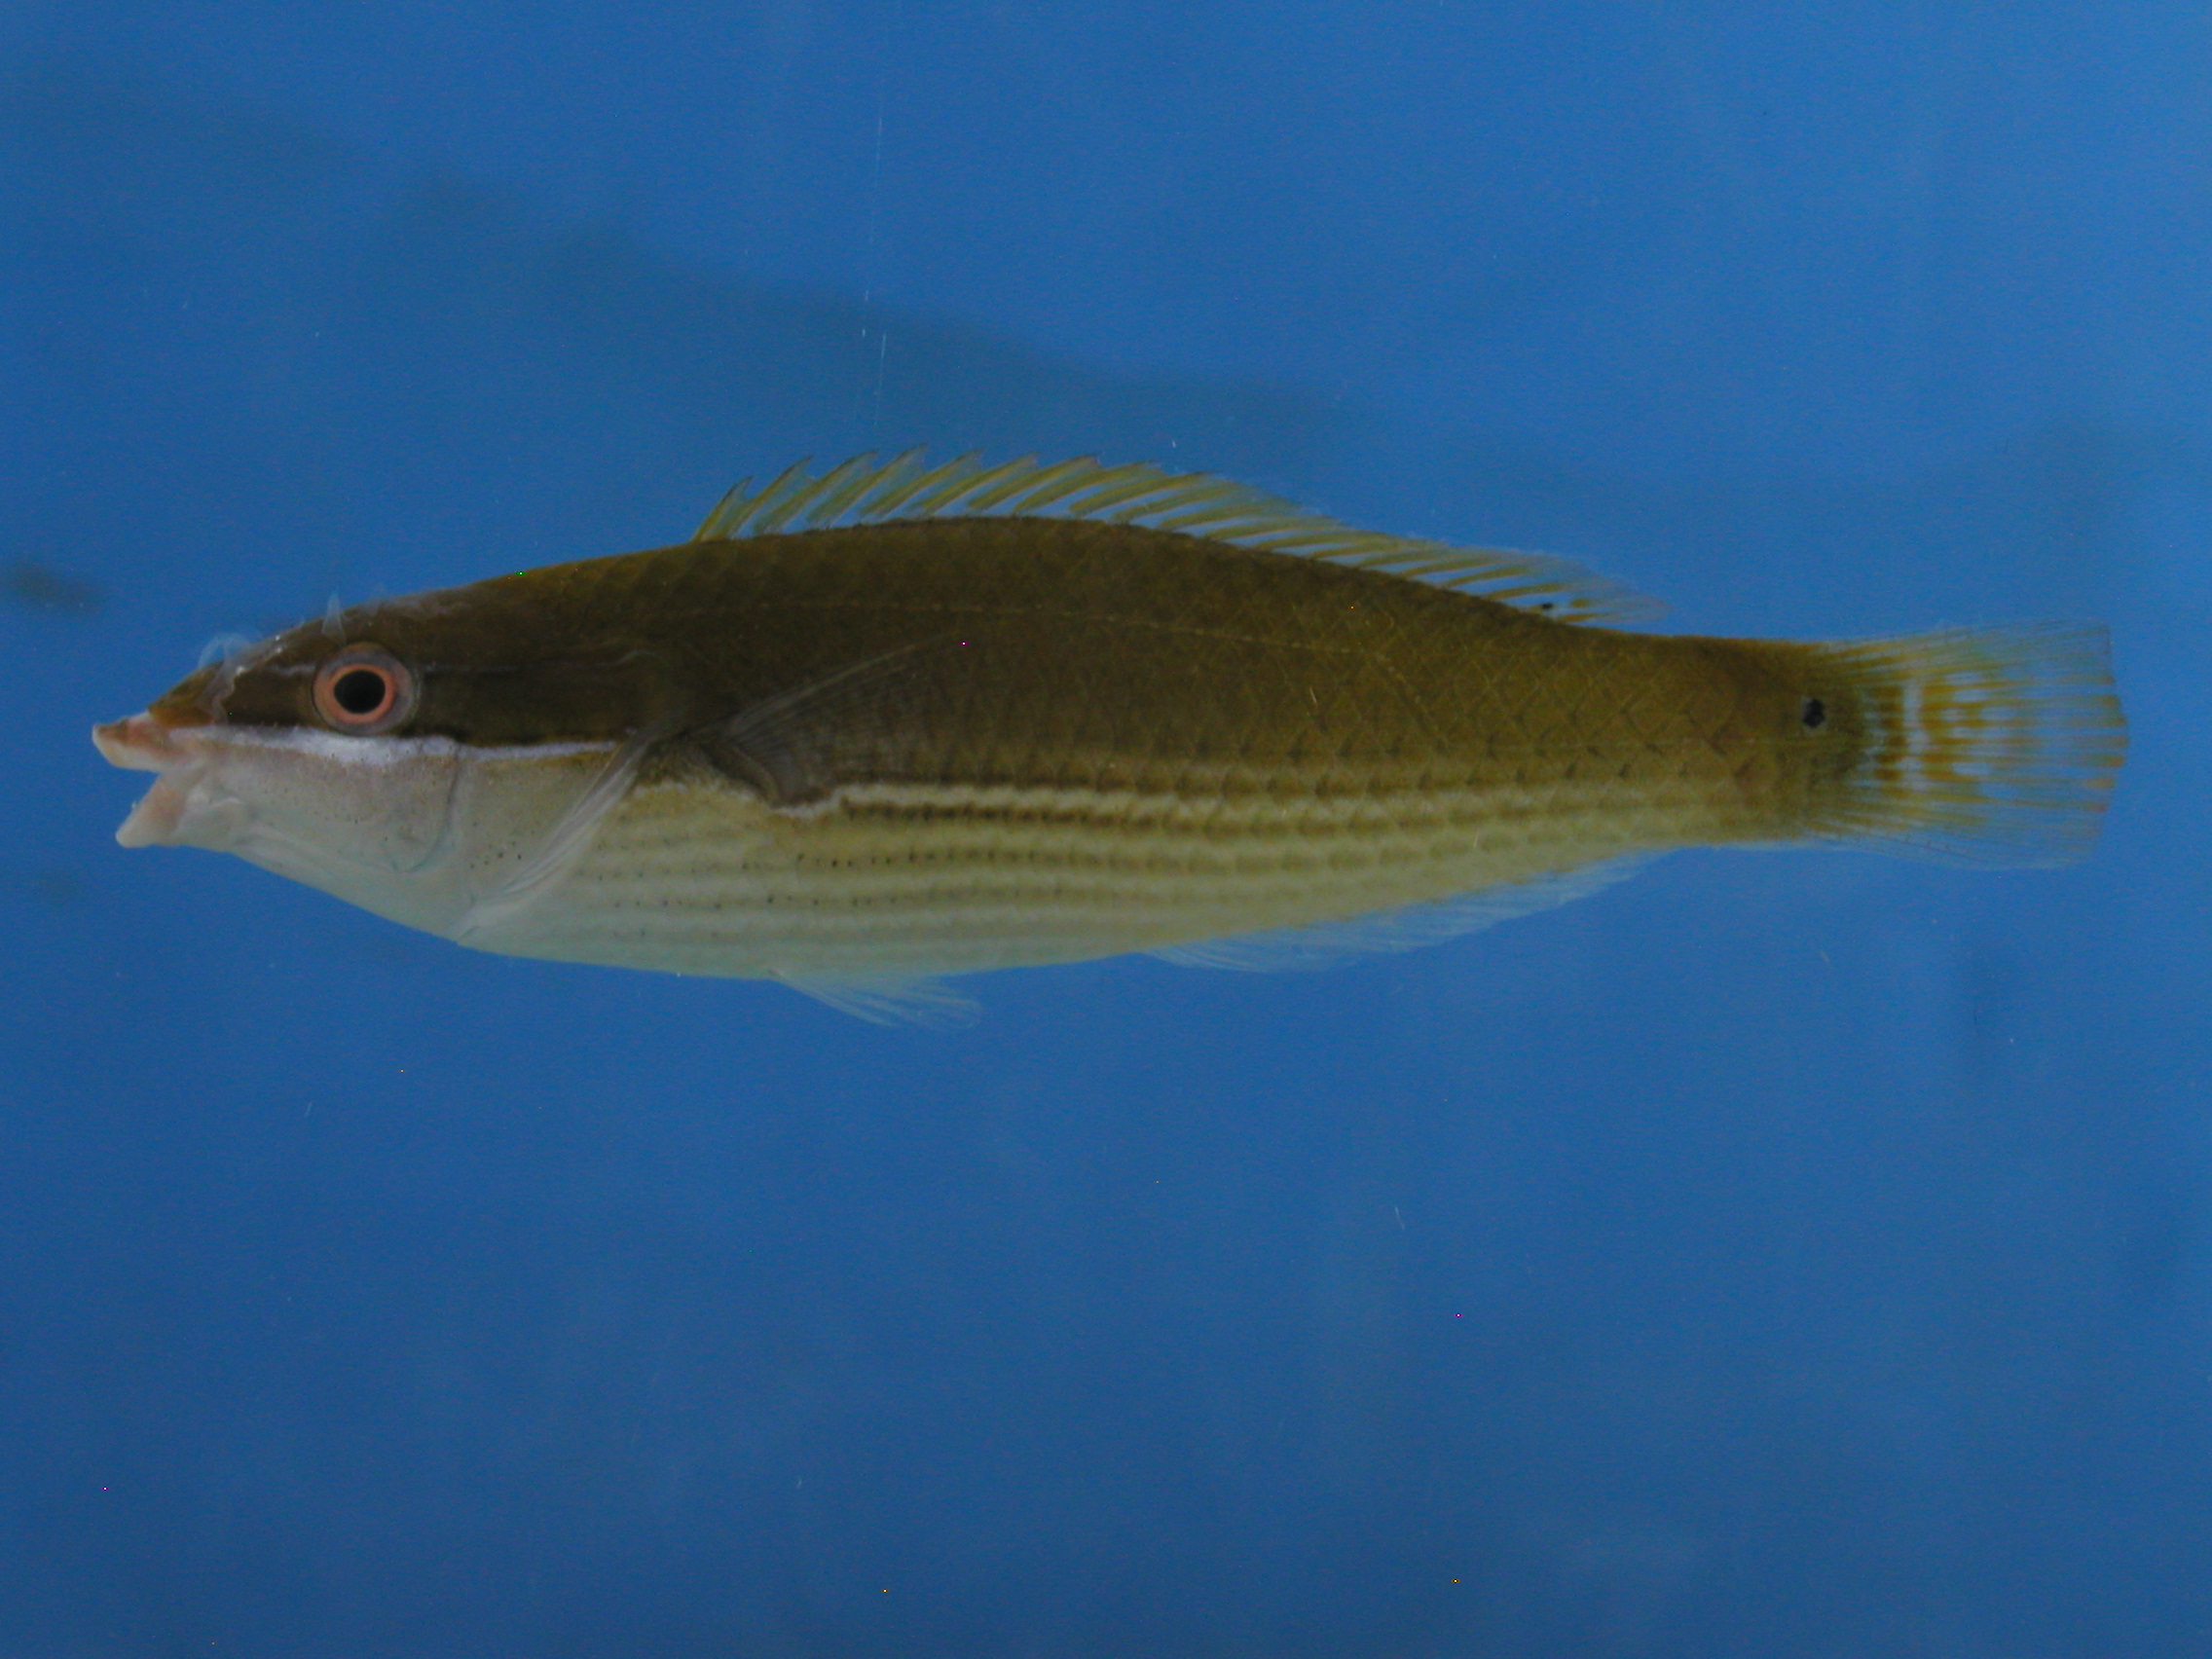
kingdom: Animalia
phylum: Chordata
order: Perciformes
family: Labridae
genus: Stethojulis
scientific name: Stethojulis strigiventer
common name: Three-ribbon wrasse
